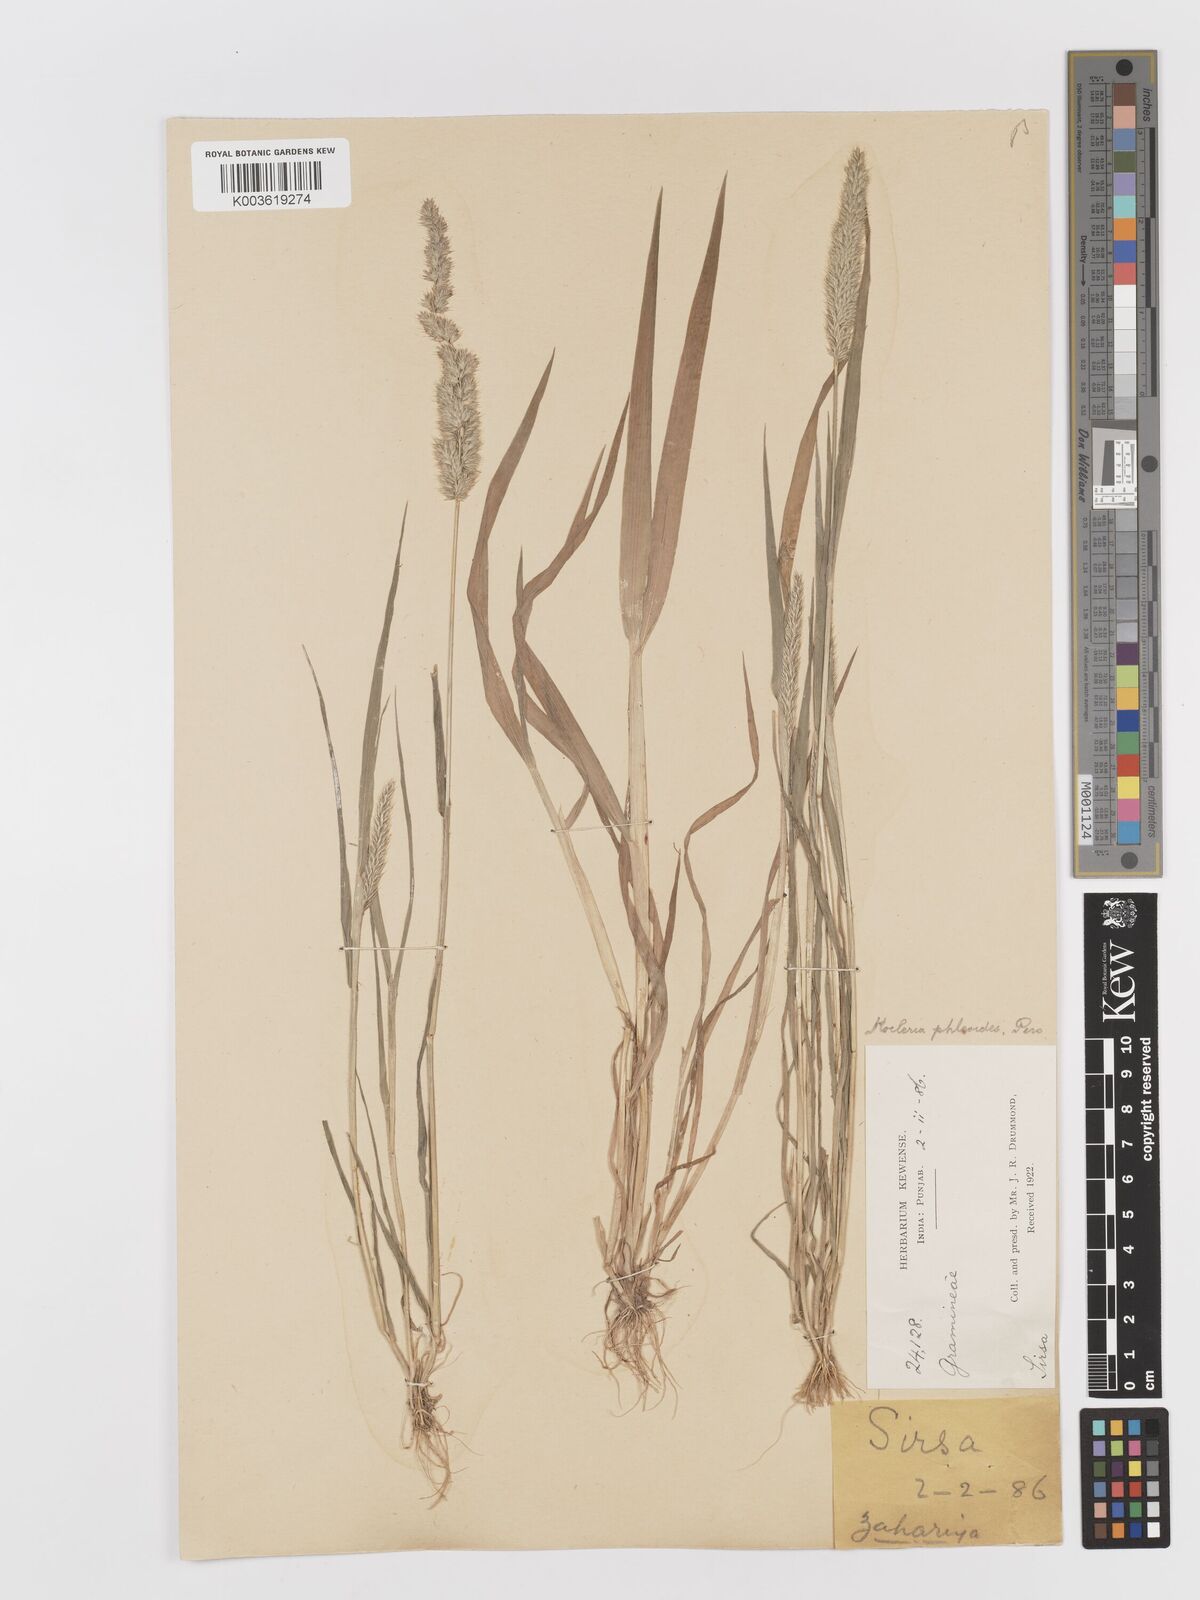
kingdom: Plantae
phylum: Tracheophyta
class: Liliopsida
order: Poales
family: Poaceae
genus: Rostraria
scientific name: Rostraria cristata
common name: Mediterranean hair-grass
